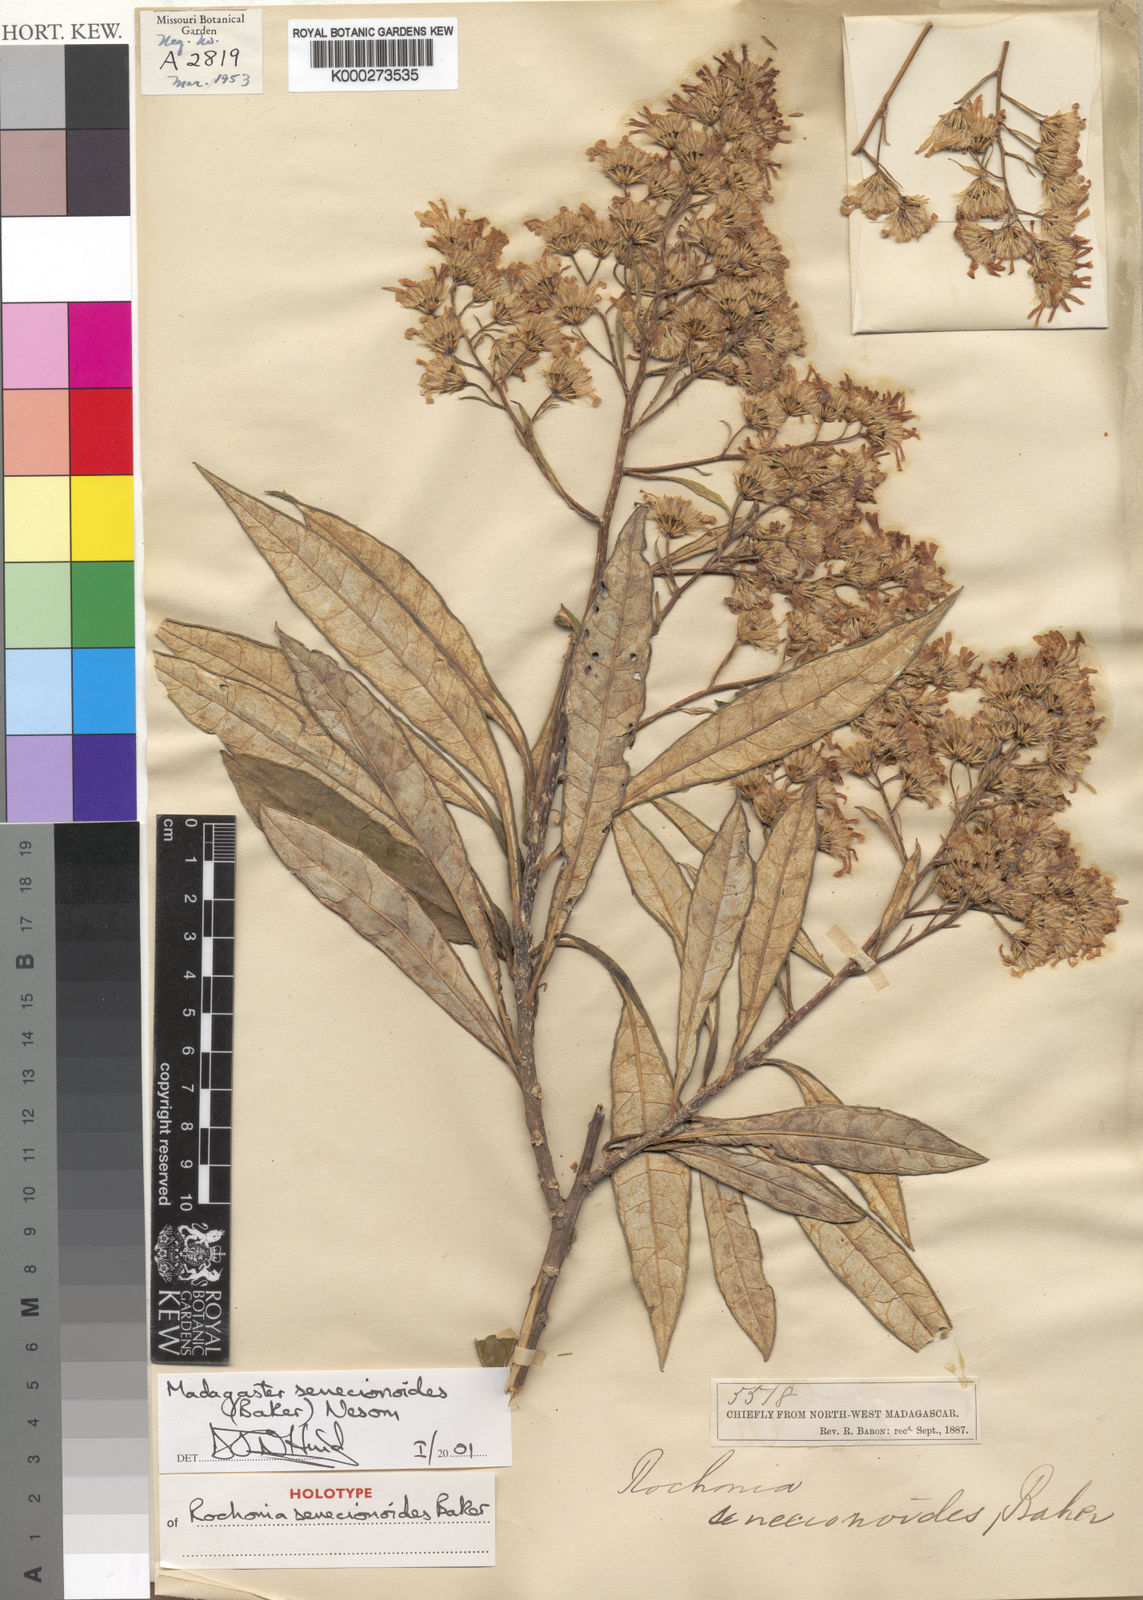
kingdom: Plantae
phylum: Tracheophyta
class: Magnoliopsida
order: Asterales
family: Asteraceae
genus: Madagaster
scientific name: Madagaster senecionoides
